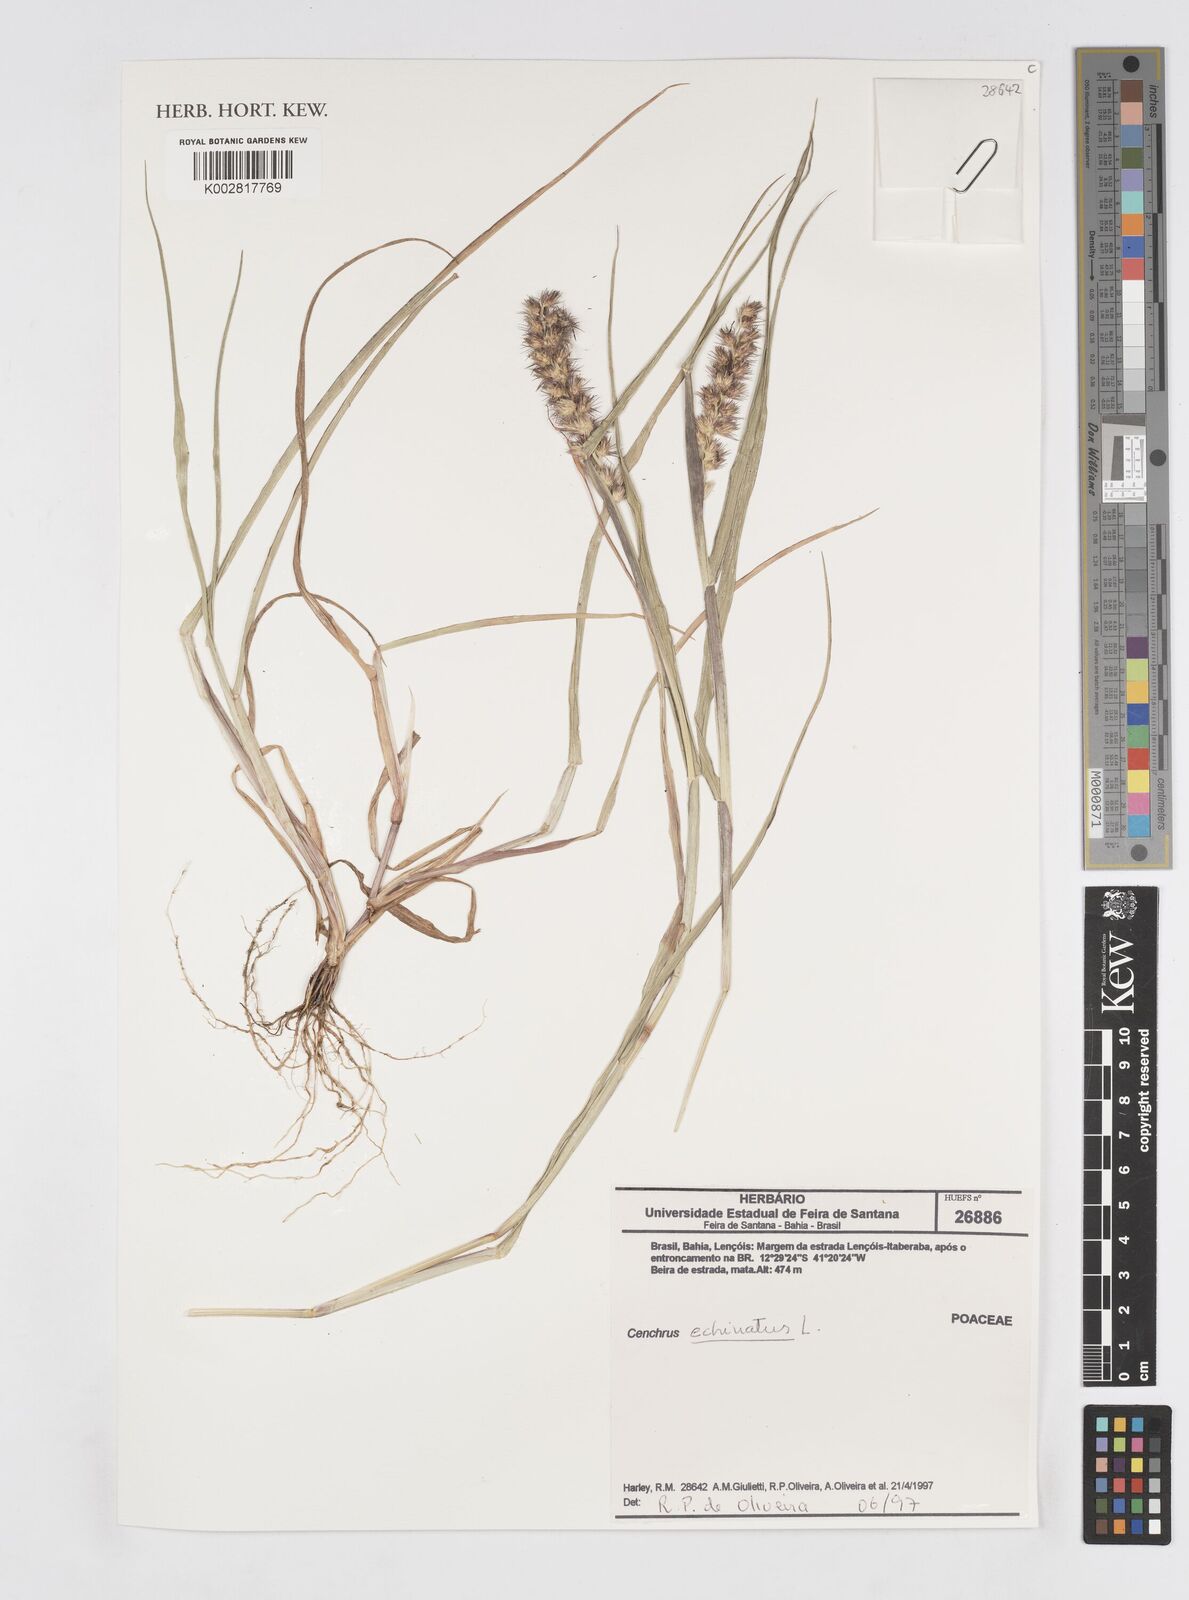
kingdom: Plantae
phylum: Tracheophyta
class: Liliopsida
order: Poales
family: Poaceae
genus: Cenchrus
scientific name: Cenchrus
